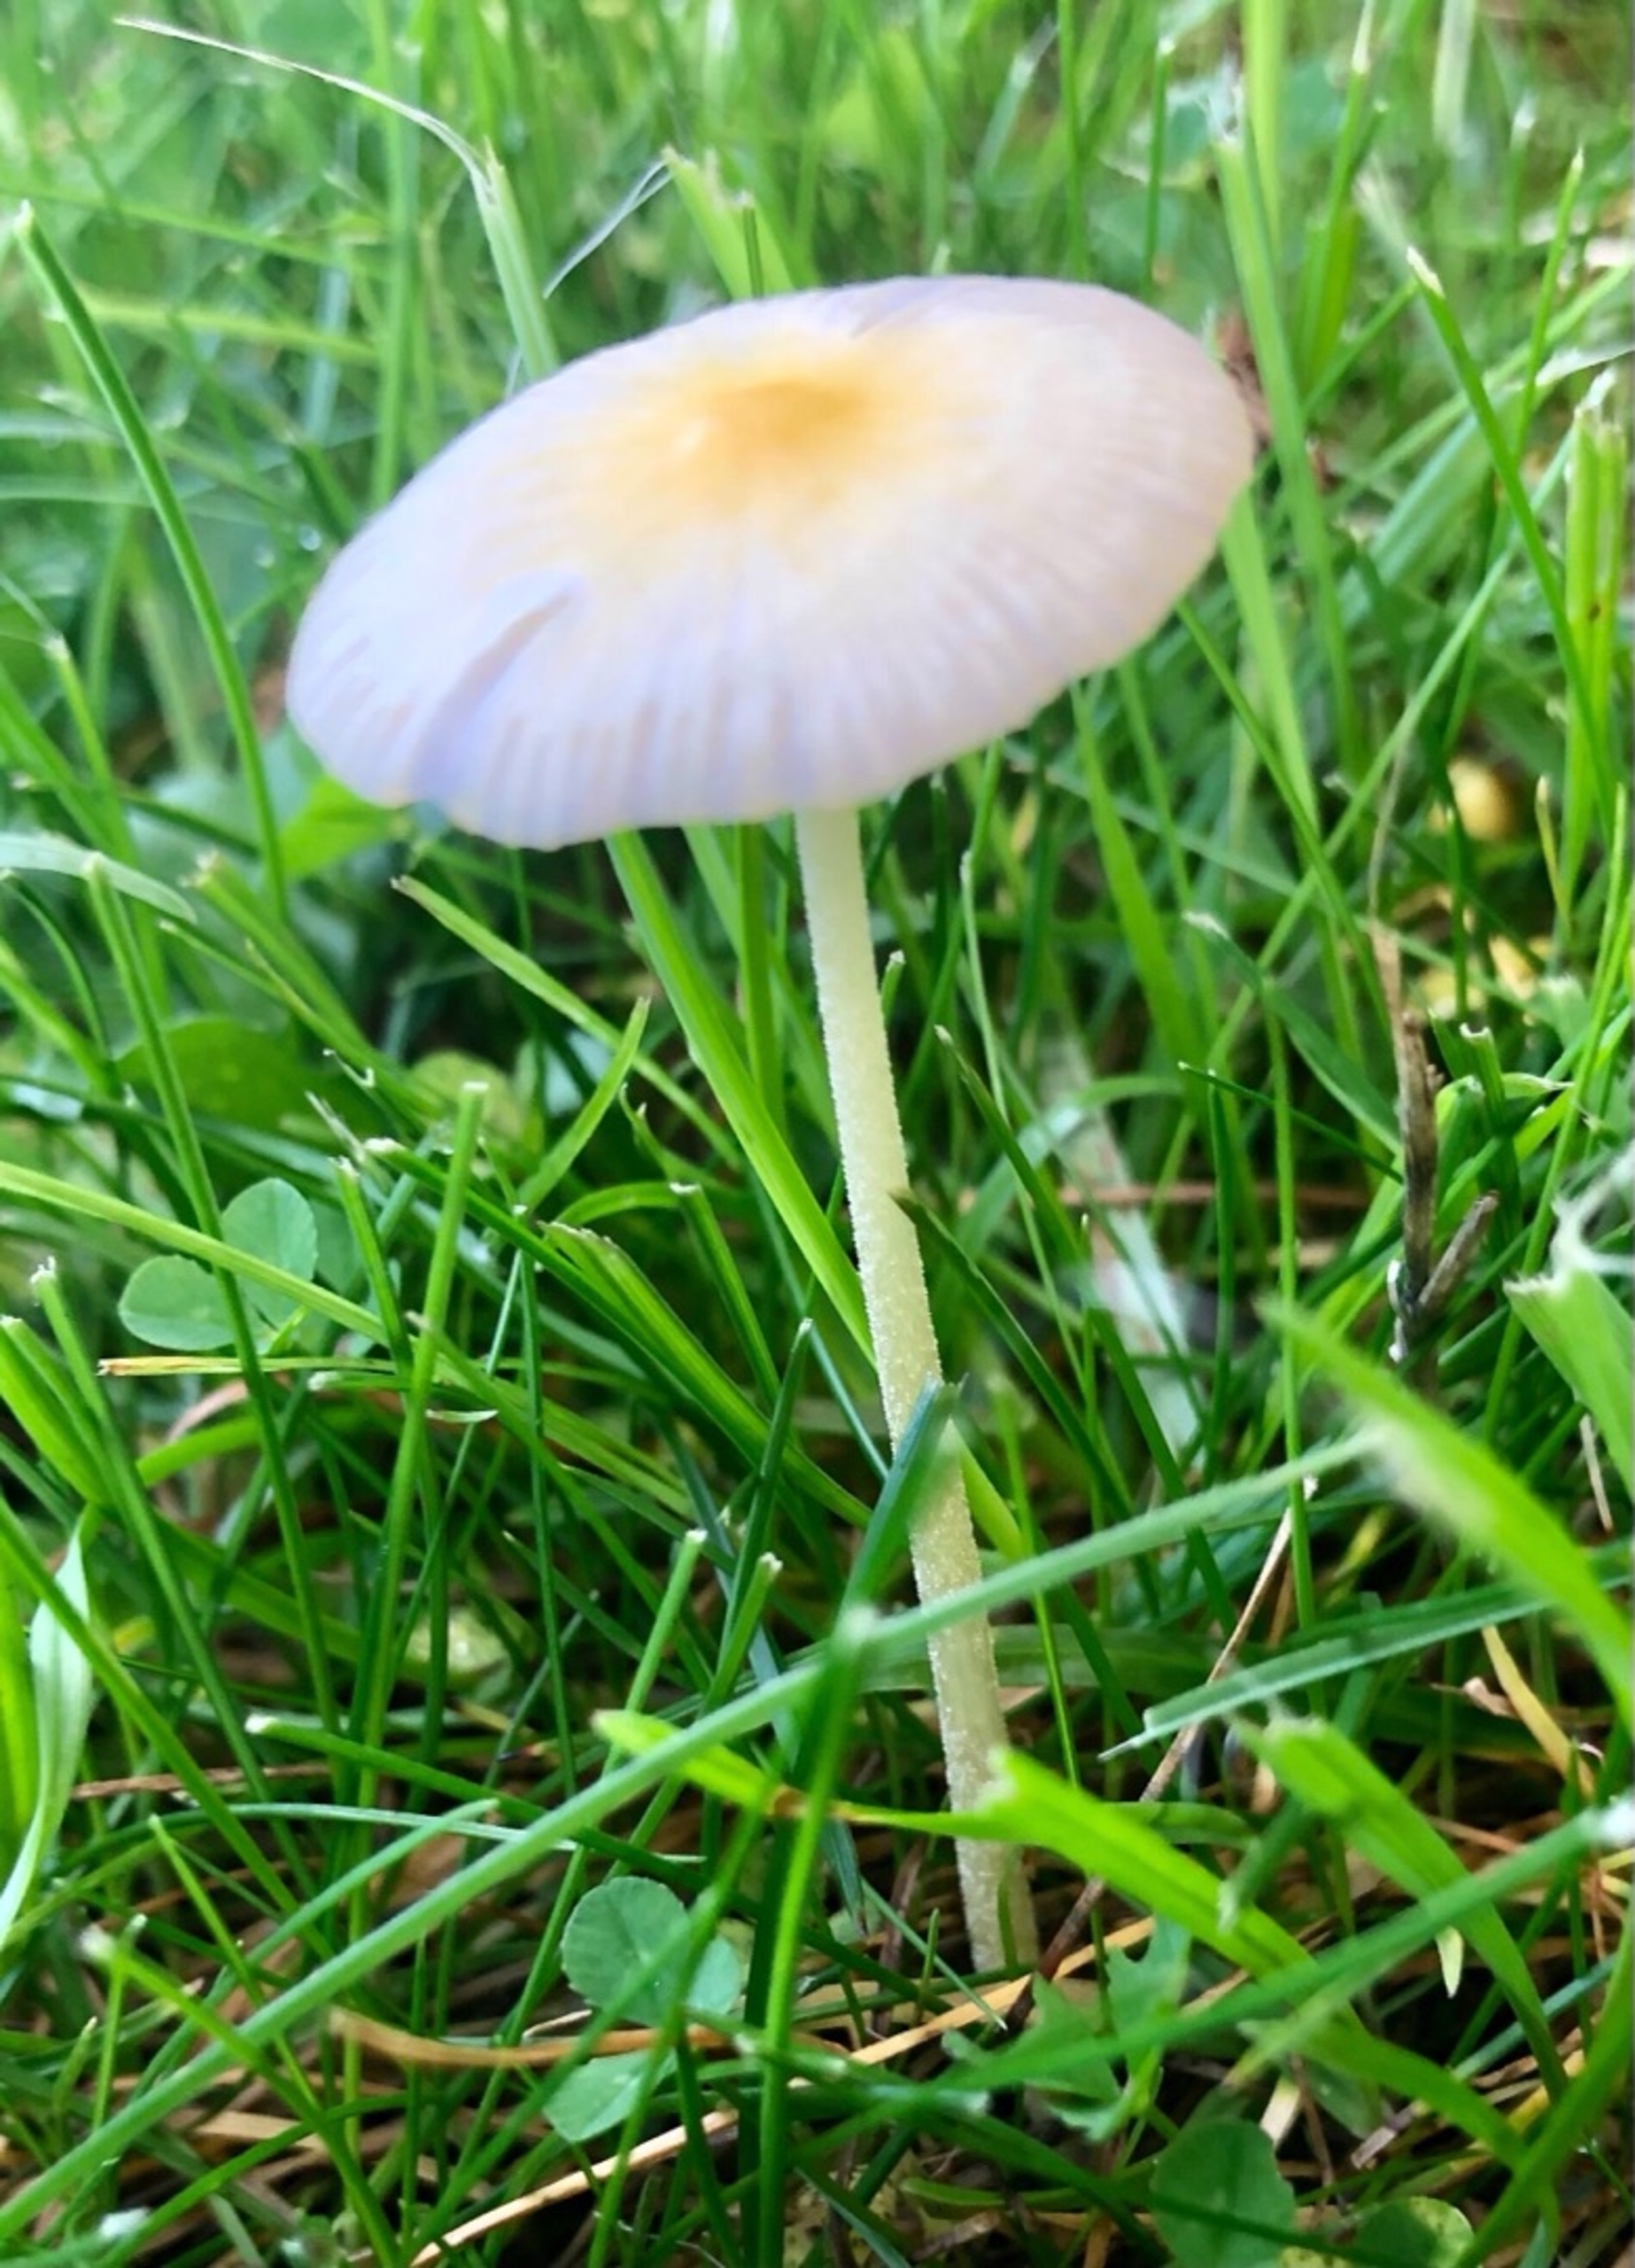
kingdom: Fungi
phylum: Basidiomycota
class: Agaricomycetes
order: Agaricales
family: Bolbitiaceae
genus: Bolbitius
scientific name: Bolbitius titubans
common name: Almindelig gulhat
